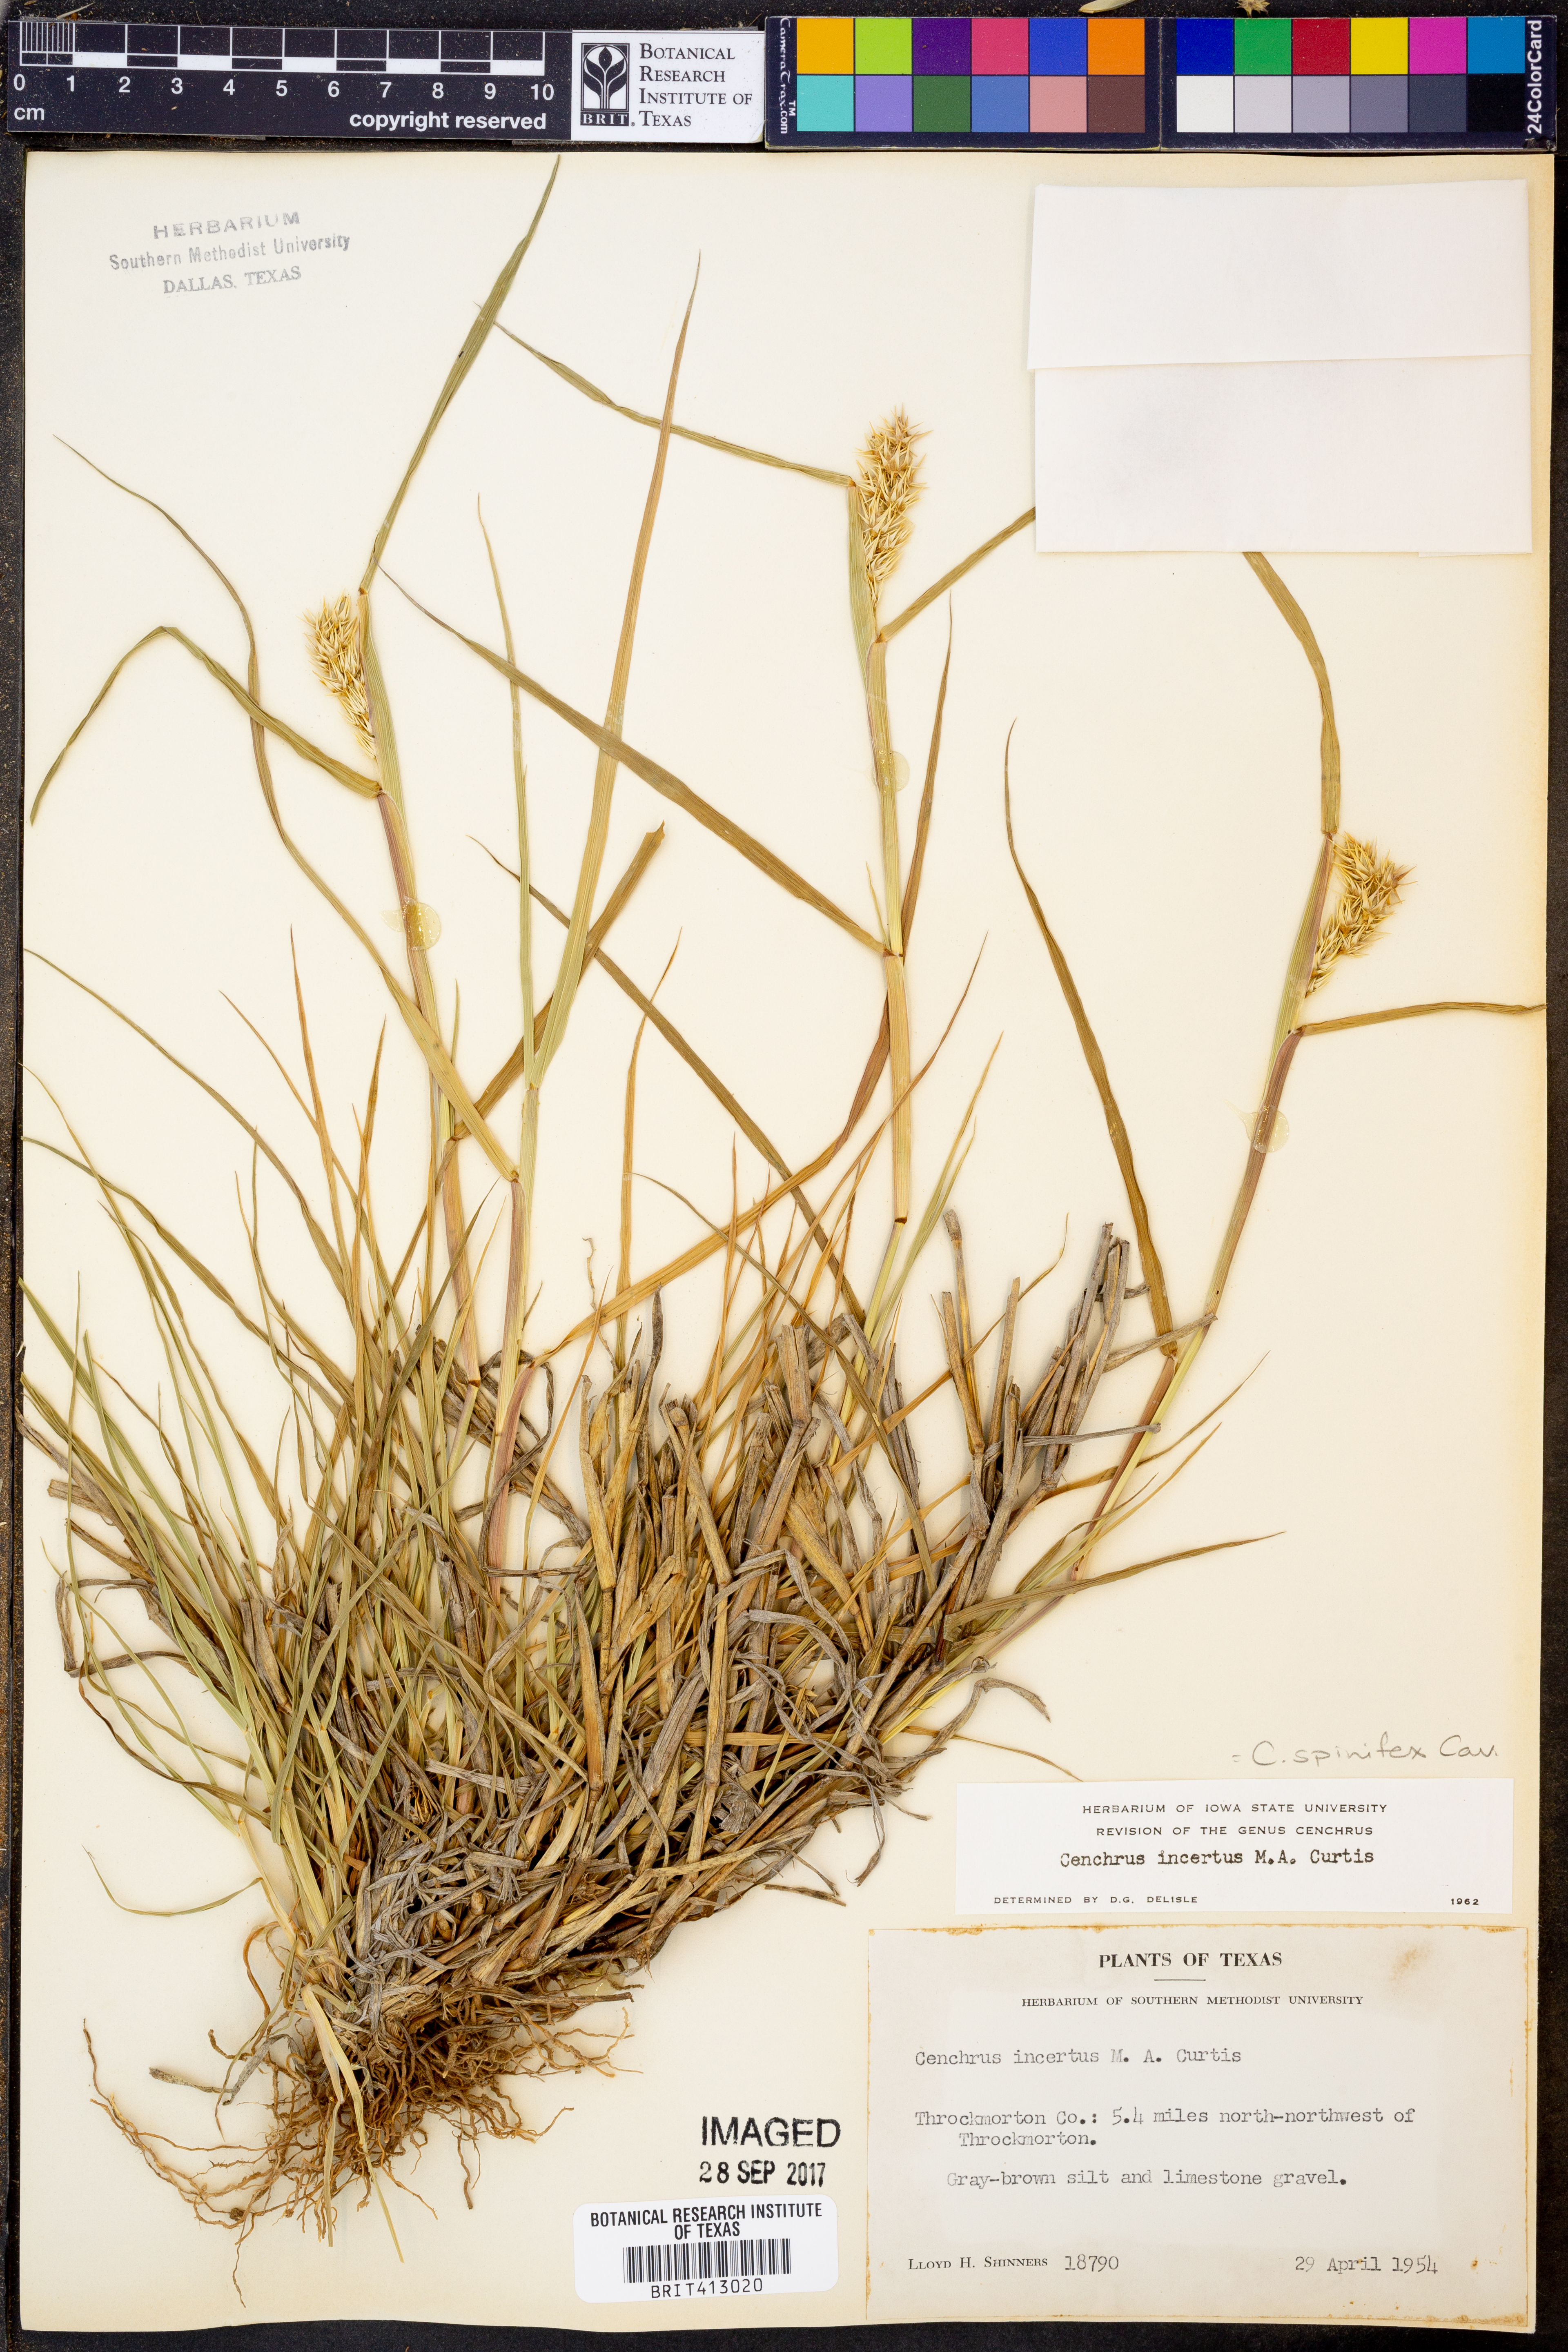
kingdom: Plantae
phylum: Tracheophyta
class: Liliopsida
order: Poales
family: Poaceae
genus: Cenchrus
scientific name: Cenchrus spinifex
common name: Coast sandbur
